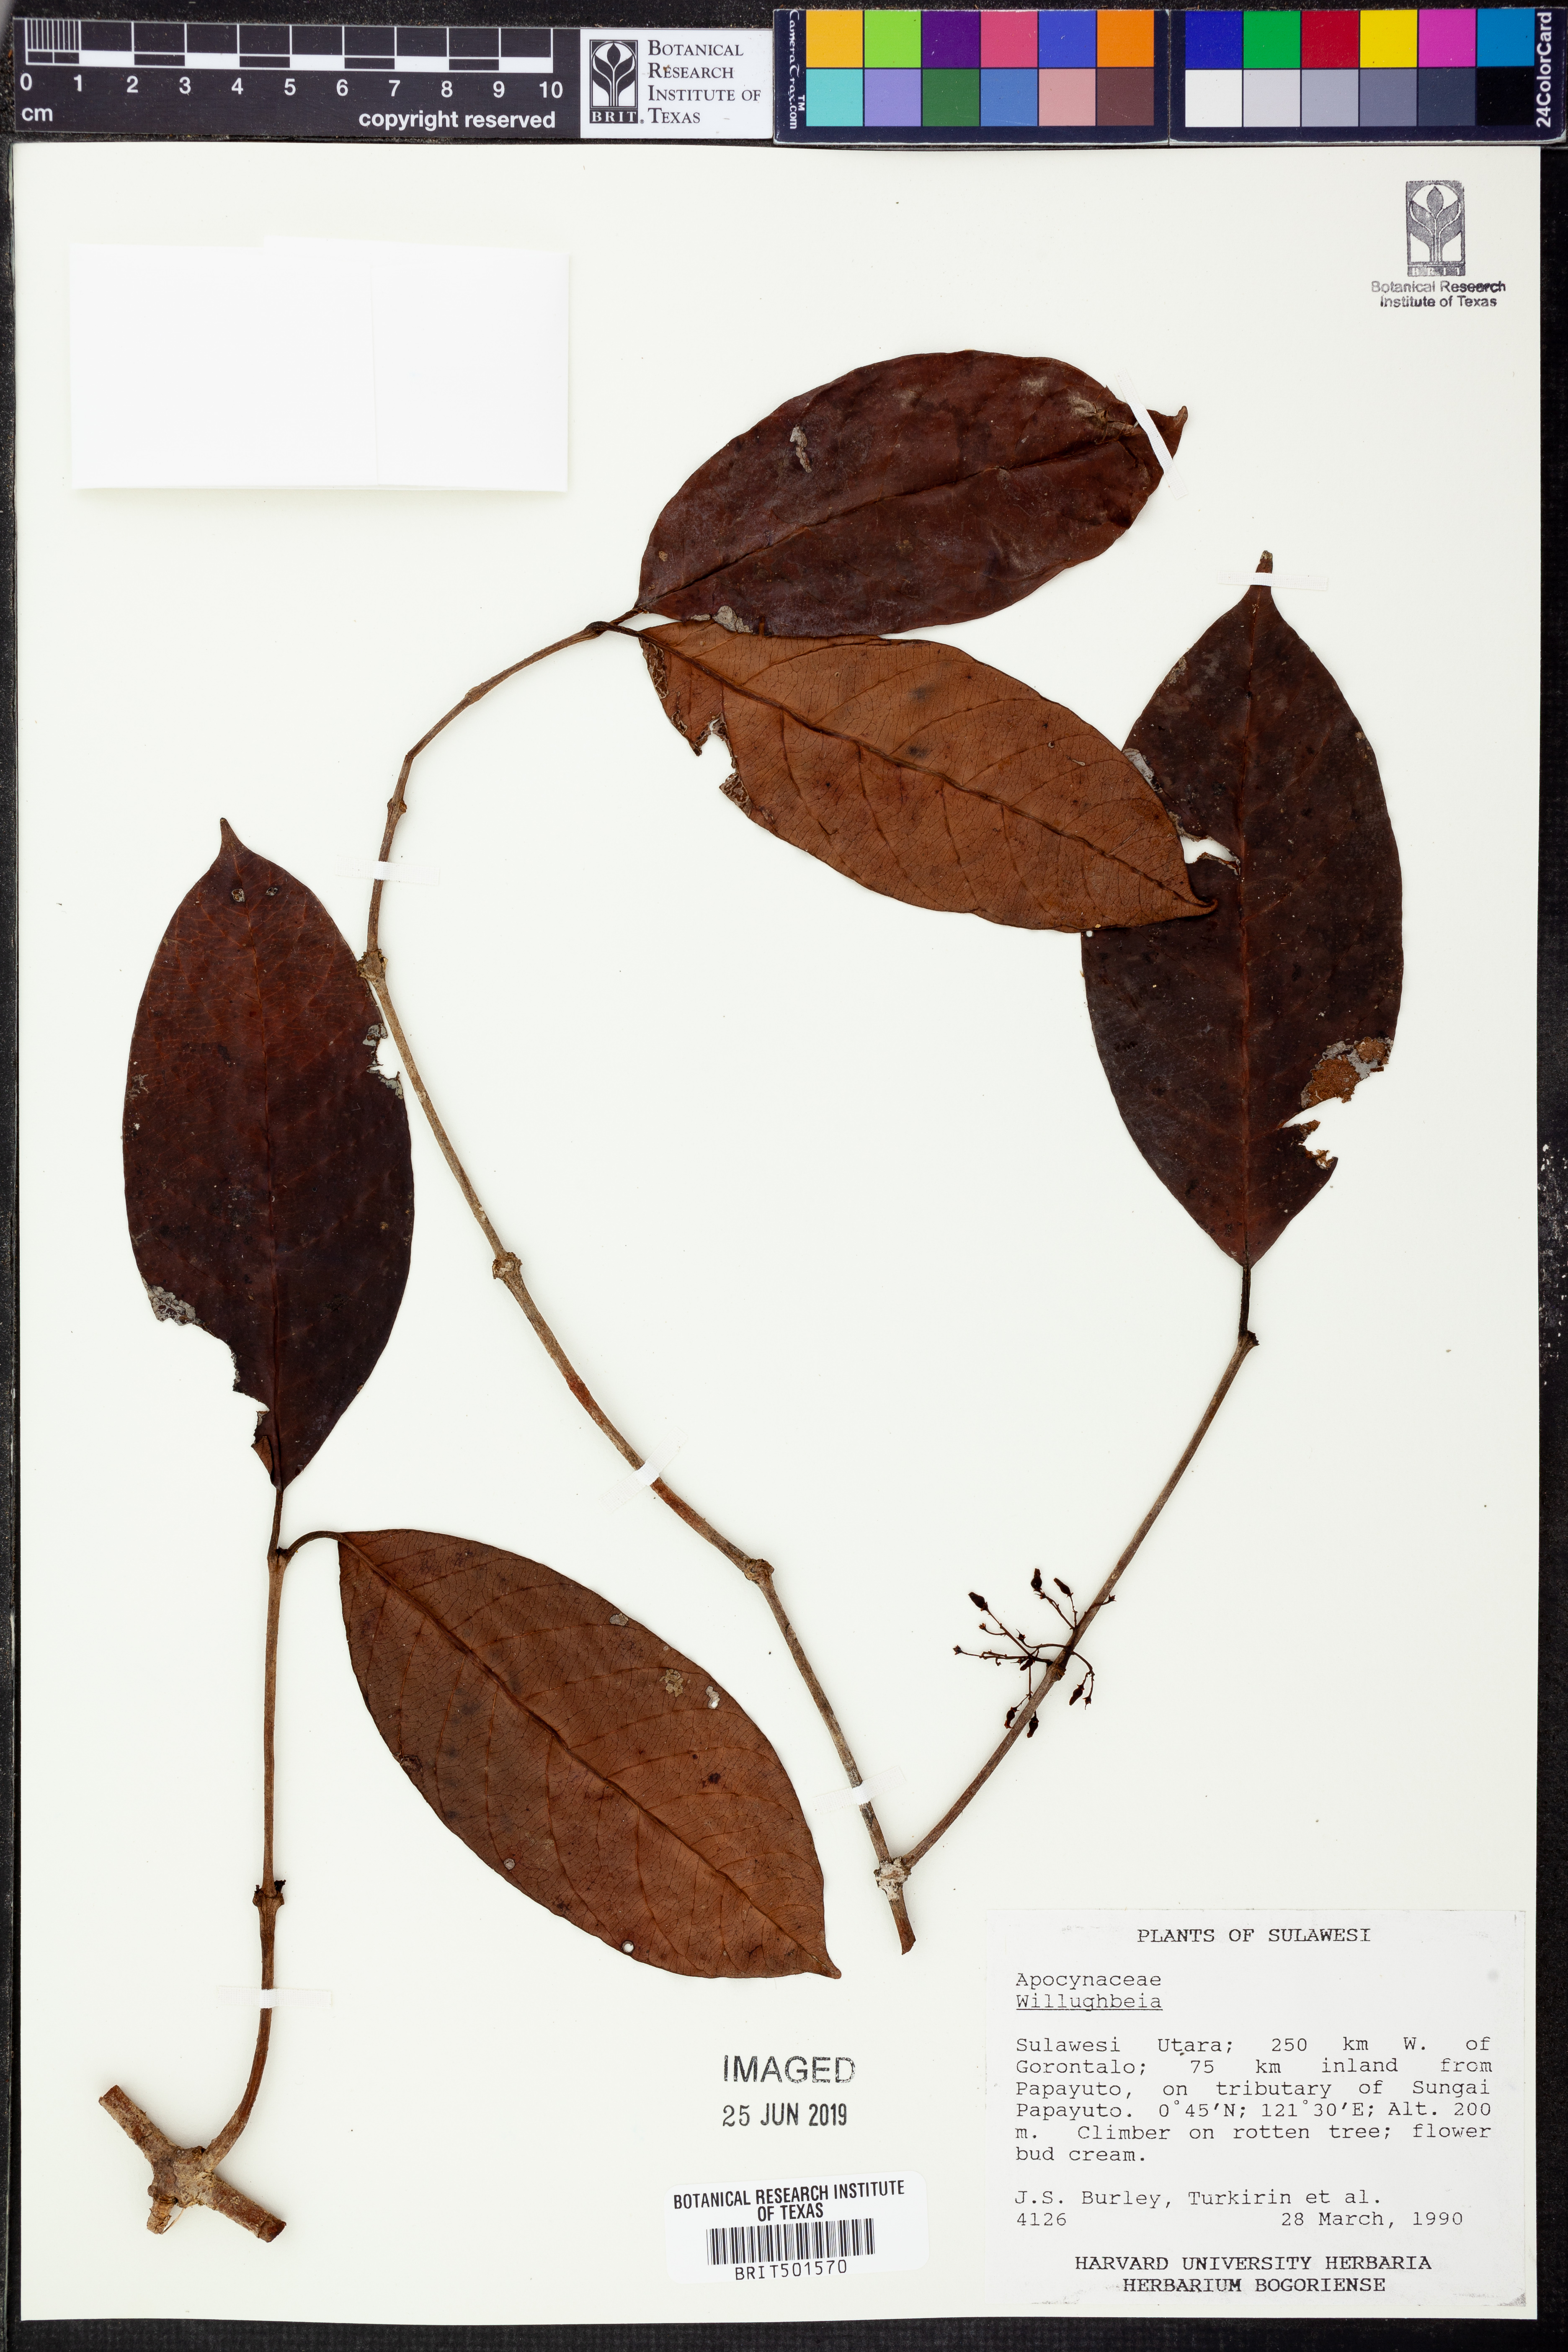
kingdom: Plantae
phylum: Tracheophyta
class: Magnoliopsida
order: Gentianales
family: Apocynaceae
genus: Willughbeia
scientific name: Willughbeia
